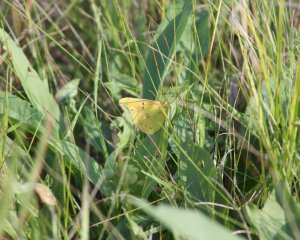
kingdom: Animalia
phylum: Arthropoda
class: Insecta
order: Lepidoptera
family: Pieridae
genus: Colias
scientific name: Colias philodice
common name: Clouded Sulphur
